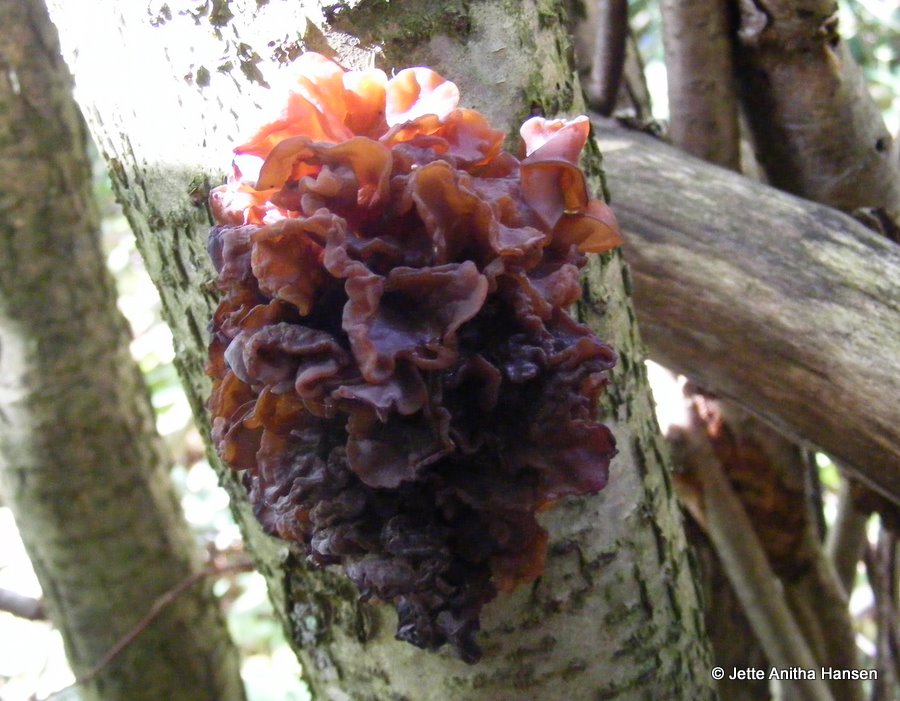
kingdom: Fungi
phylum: Basidiomycota
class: Tremellomycetes
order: Tremellales
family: Tremellaceae
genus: Phaeotremella
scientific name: Phaeotremella frondosa
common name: kæmpe-bævresvamp
